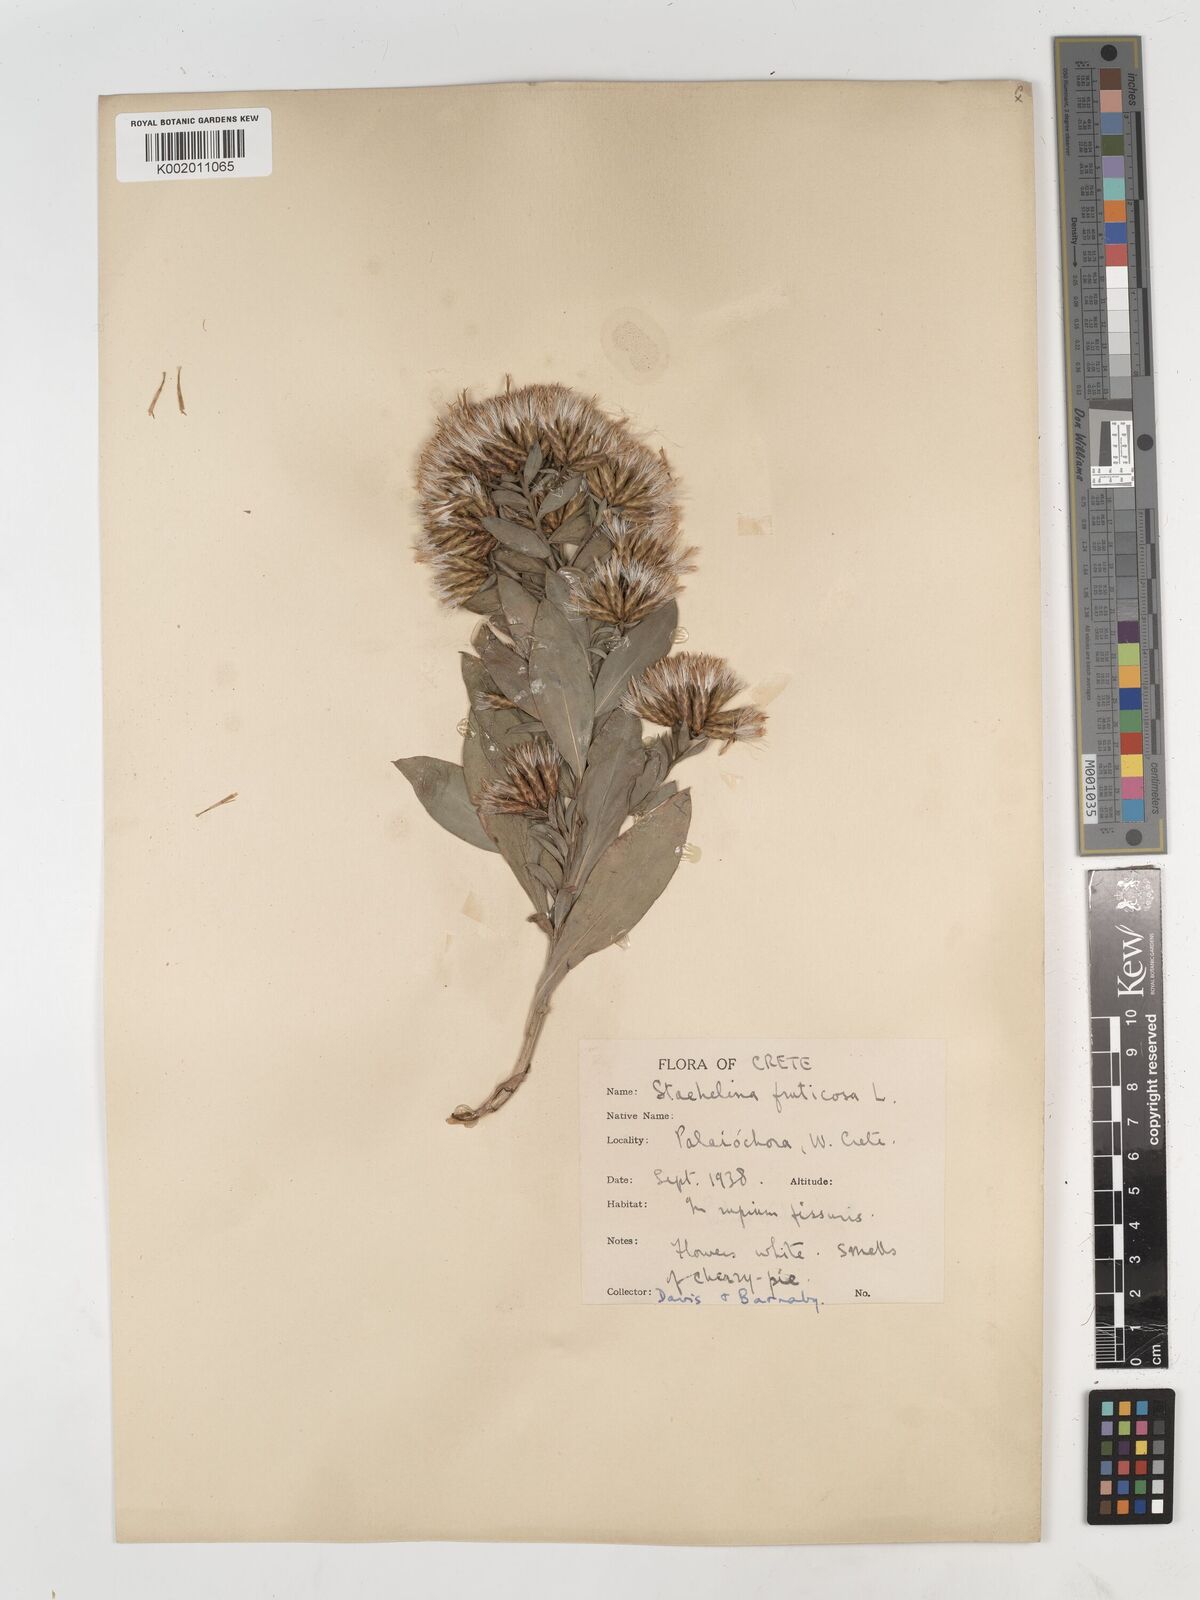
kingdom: Plantae
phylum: Tracheophyta
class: Magnoliopsida
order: Asterales
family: Asteraceae
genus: Hirtellina
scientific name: Hirtellina fruticosa
